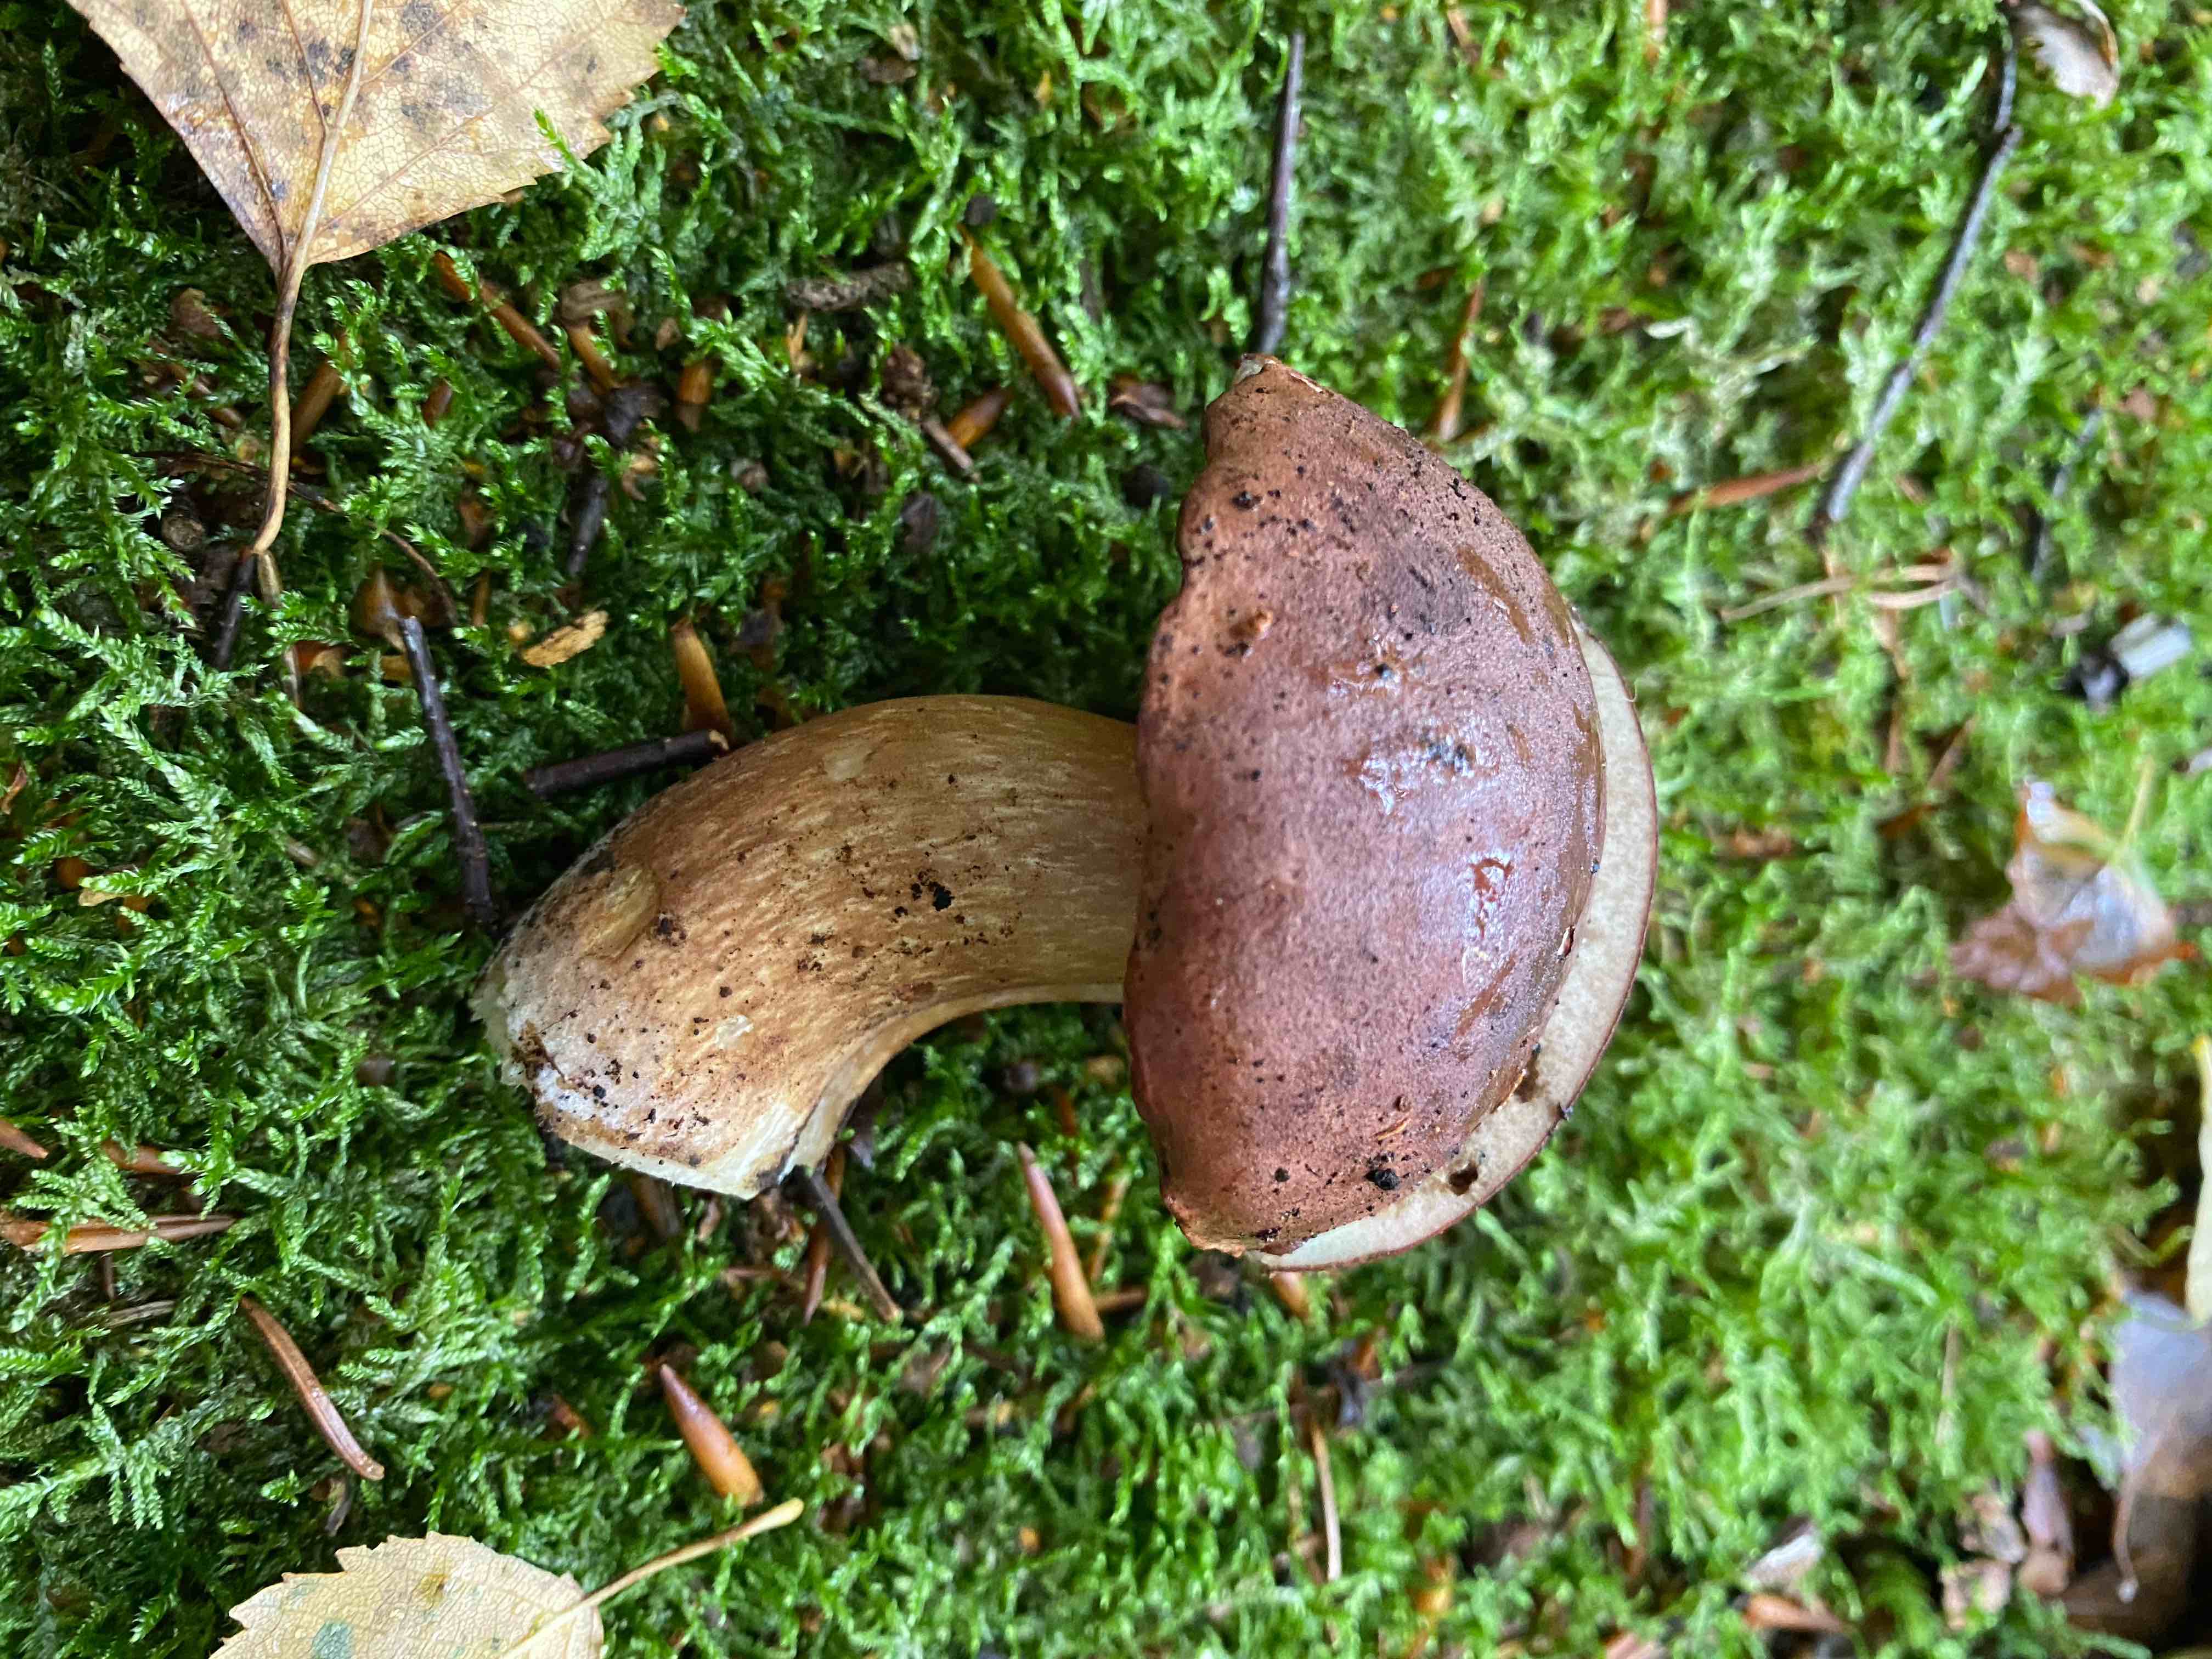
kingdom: Fungi
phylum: Basidiomycota
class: Agaricomycetes
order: Boletales
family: Boletaceae
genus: Imleria
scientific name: Imleria badia
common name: brunstokket rørhat
